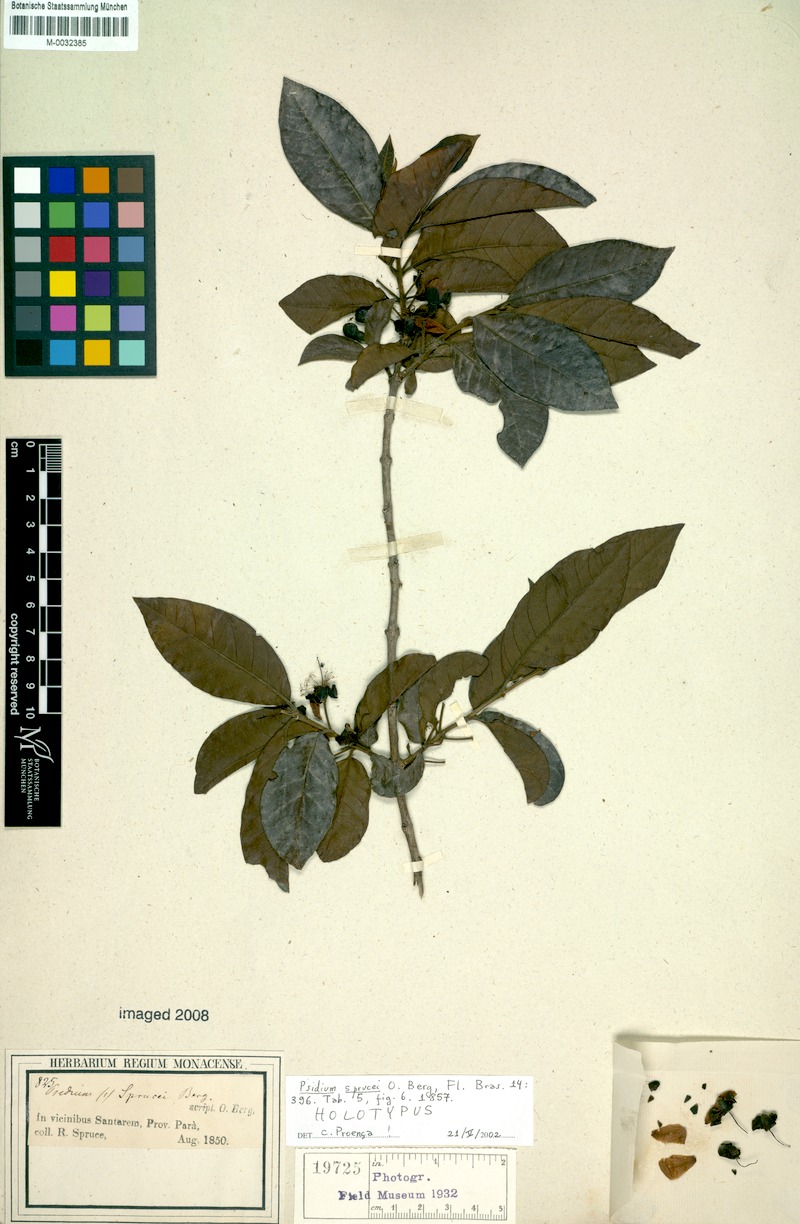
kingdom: Plantae
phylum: Tracheophyta
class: Magnoliopsida
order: Myrtales
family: Myrtaceae
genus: Psidium
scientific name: Psidium guyanense
